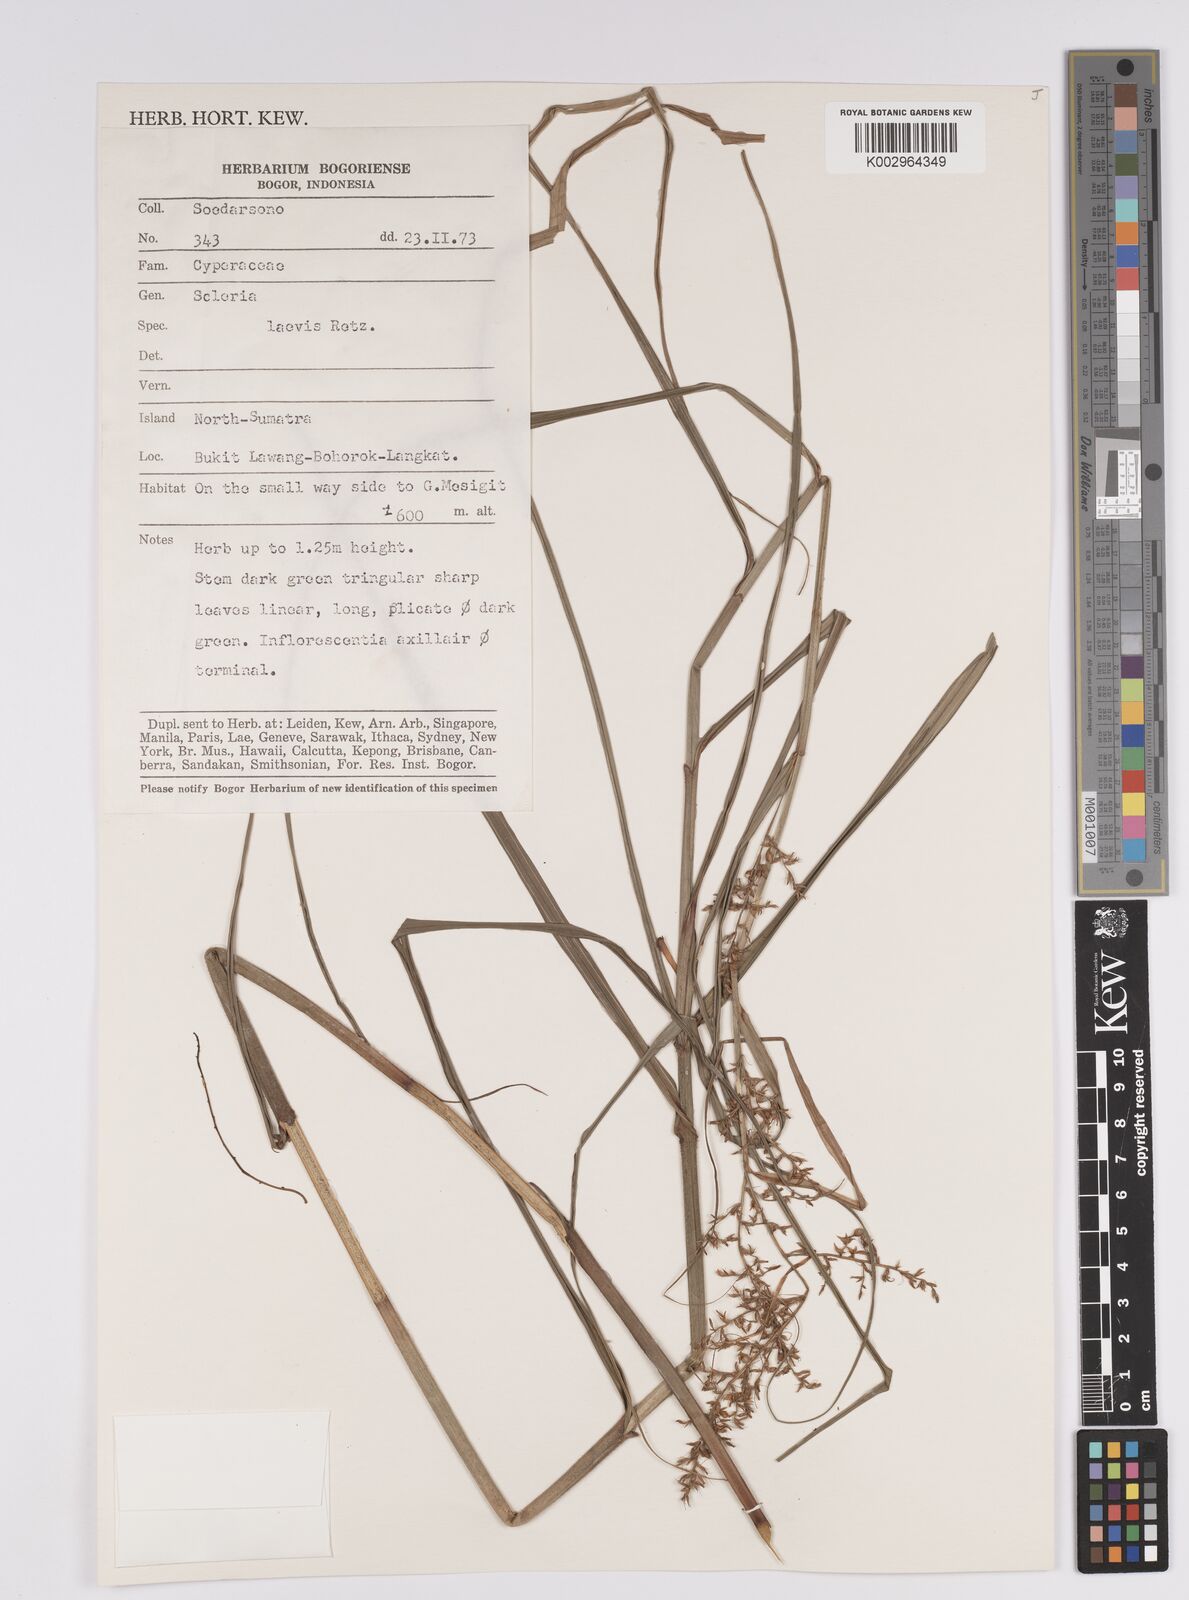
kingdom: Plantae
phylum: Tracheophyta
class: Liliopsida
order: Poales
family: Cyperaceae
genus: Scleria
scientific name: Scleria levis
